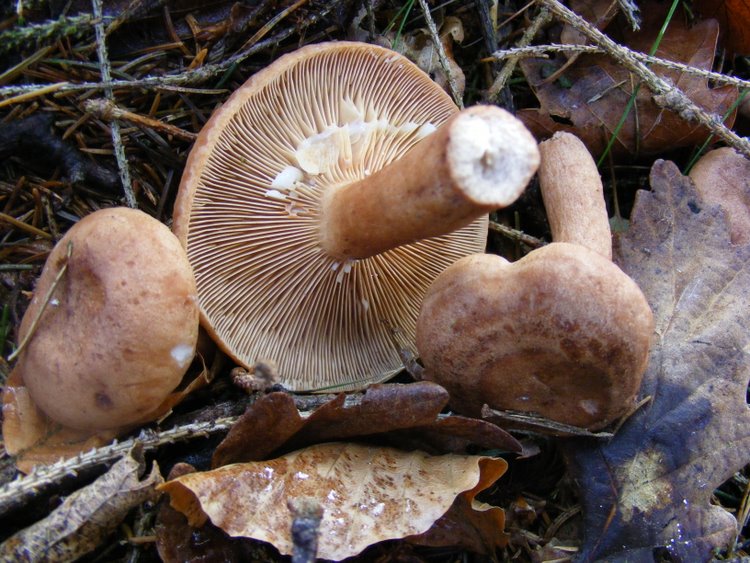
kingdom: Fungi
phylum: Basidiomycota
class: Agaricomycetes
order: Russulales
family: Russulaceae
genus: Lactarius
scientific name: Lactarius quietus
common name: ege-mælkehat
